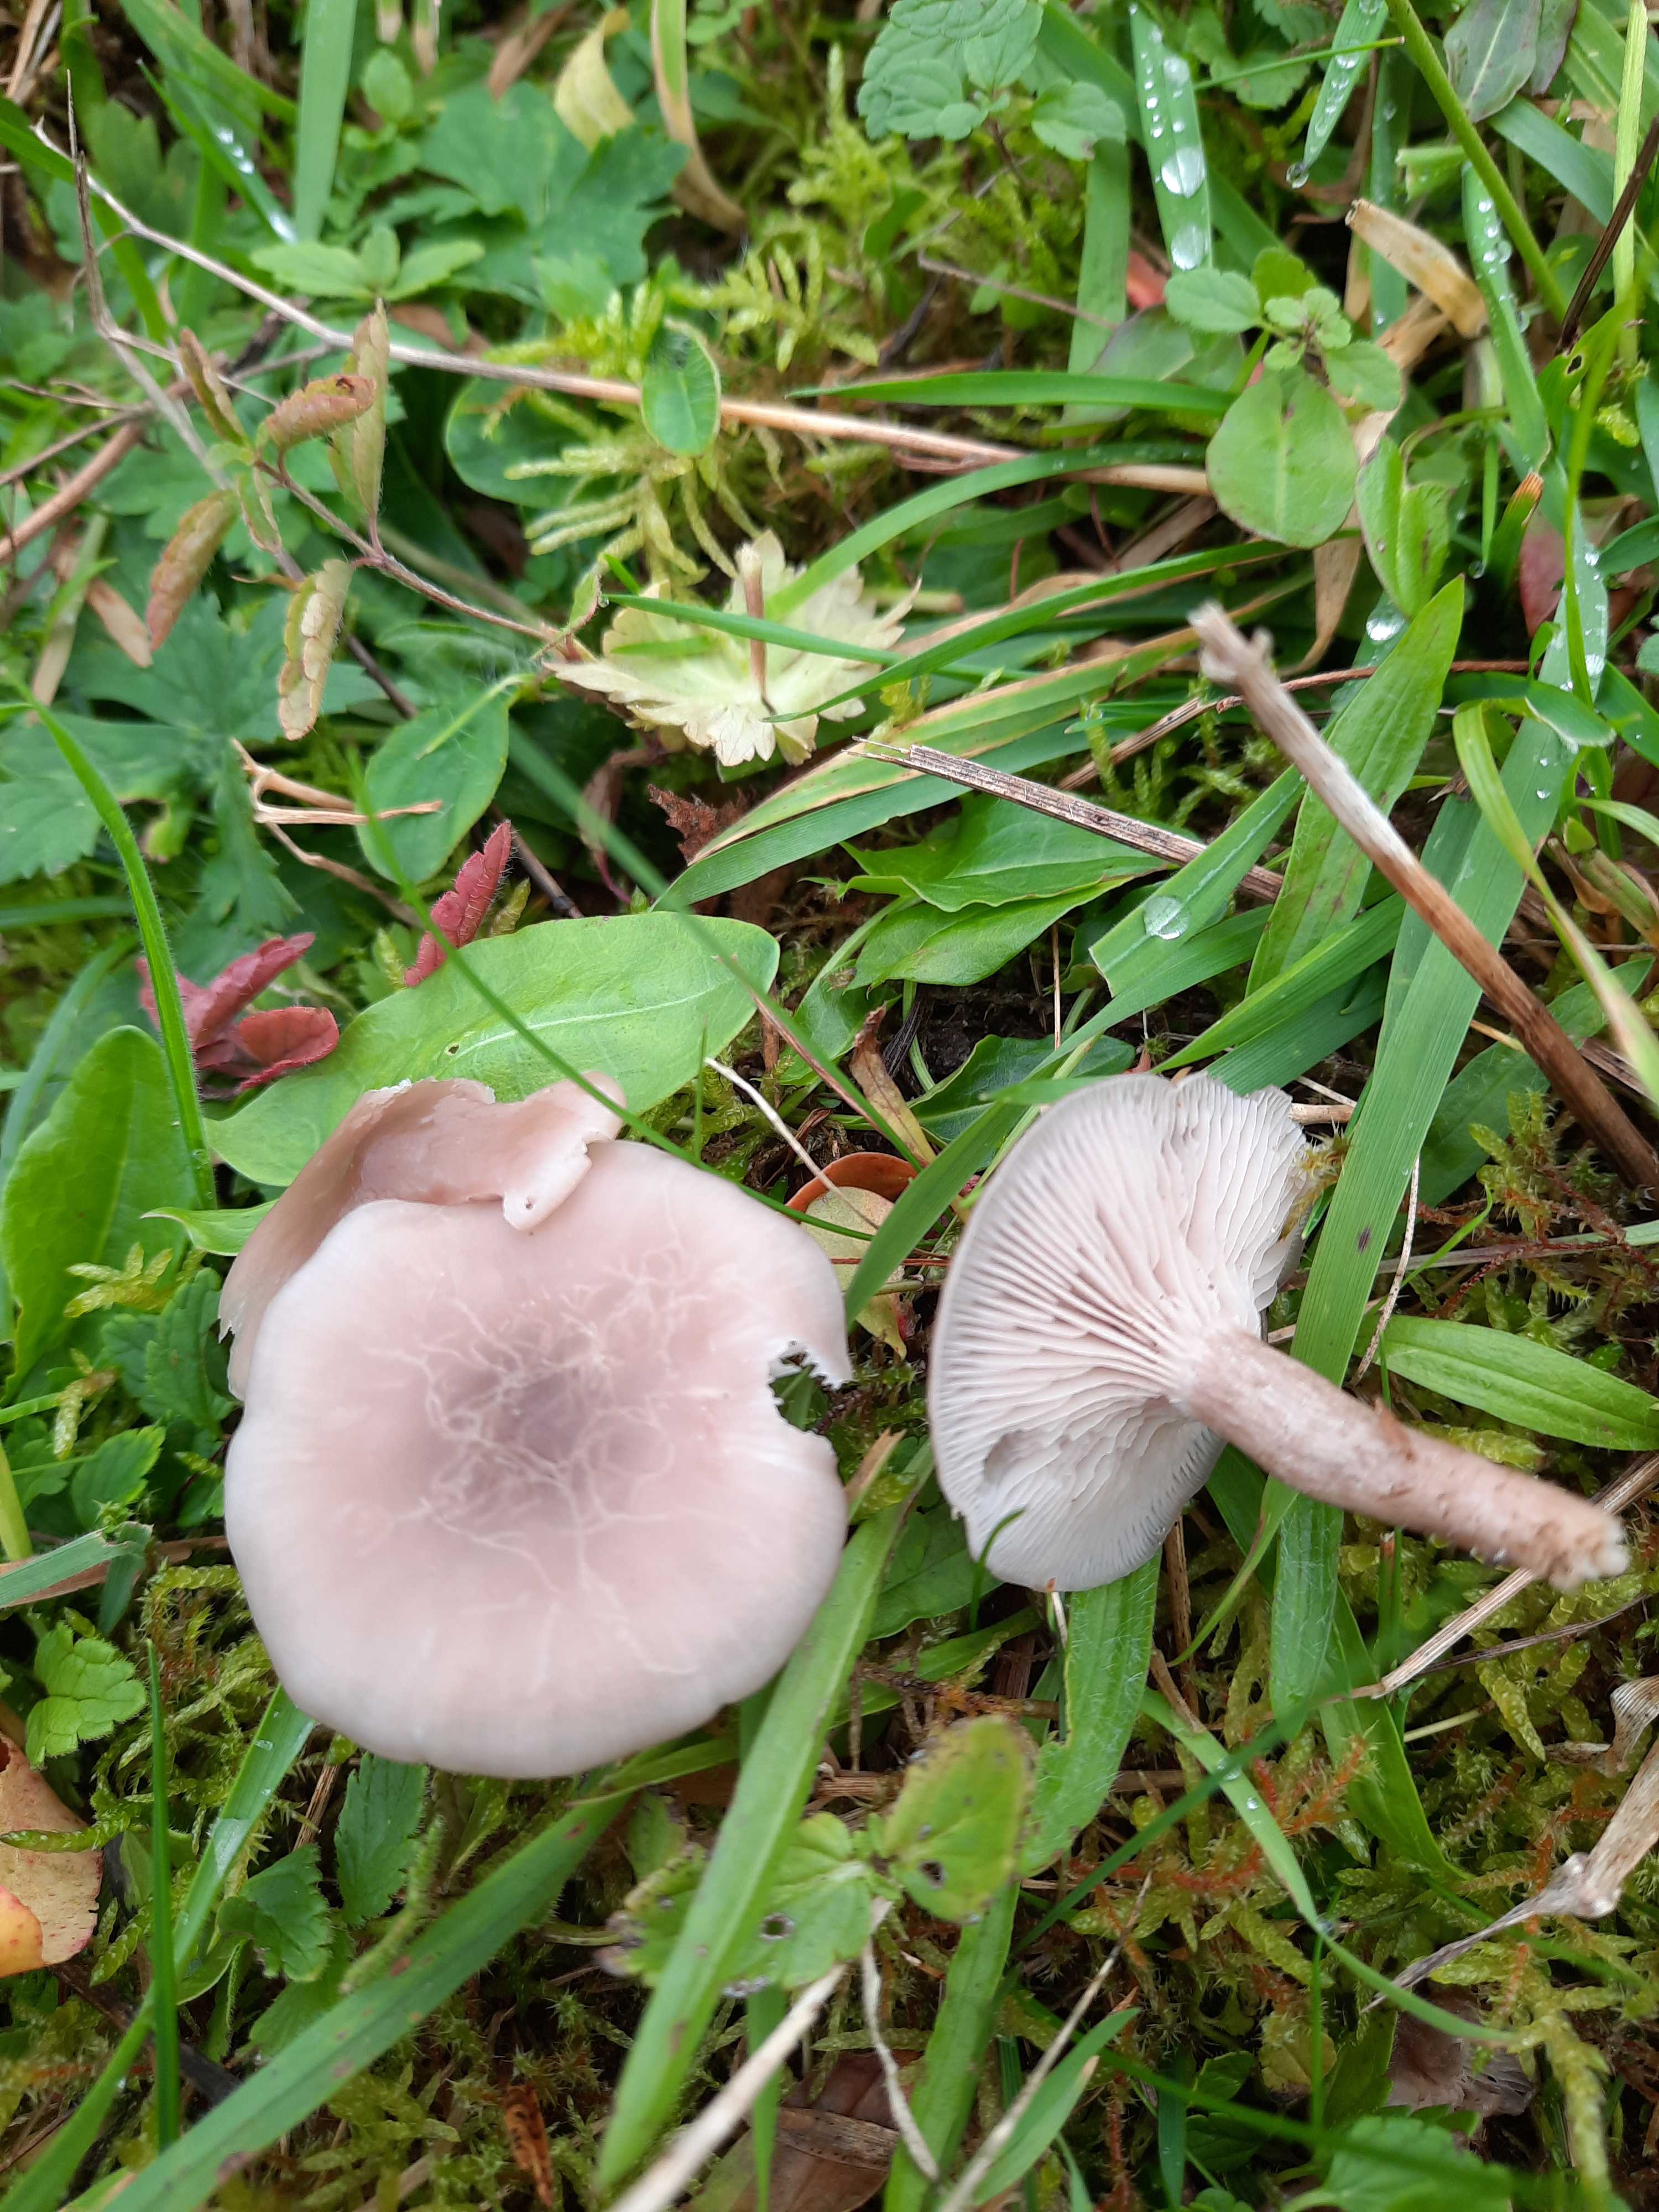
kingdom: Fungi
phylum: Basidiomycota
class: Agaricomycetes
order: Agaricales
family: Tricholomataceae
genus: Lepista
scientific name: Lepista sordida
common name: spinkel hekseringshat
